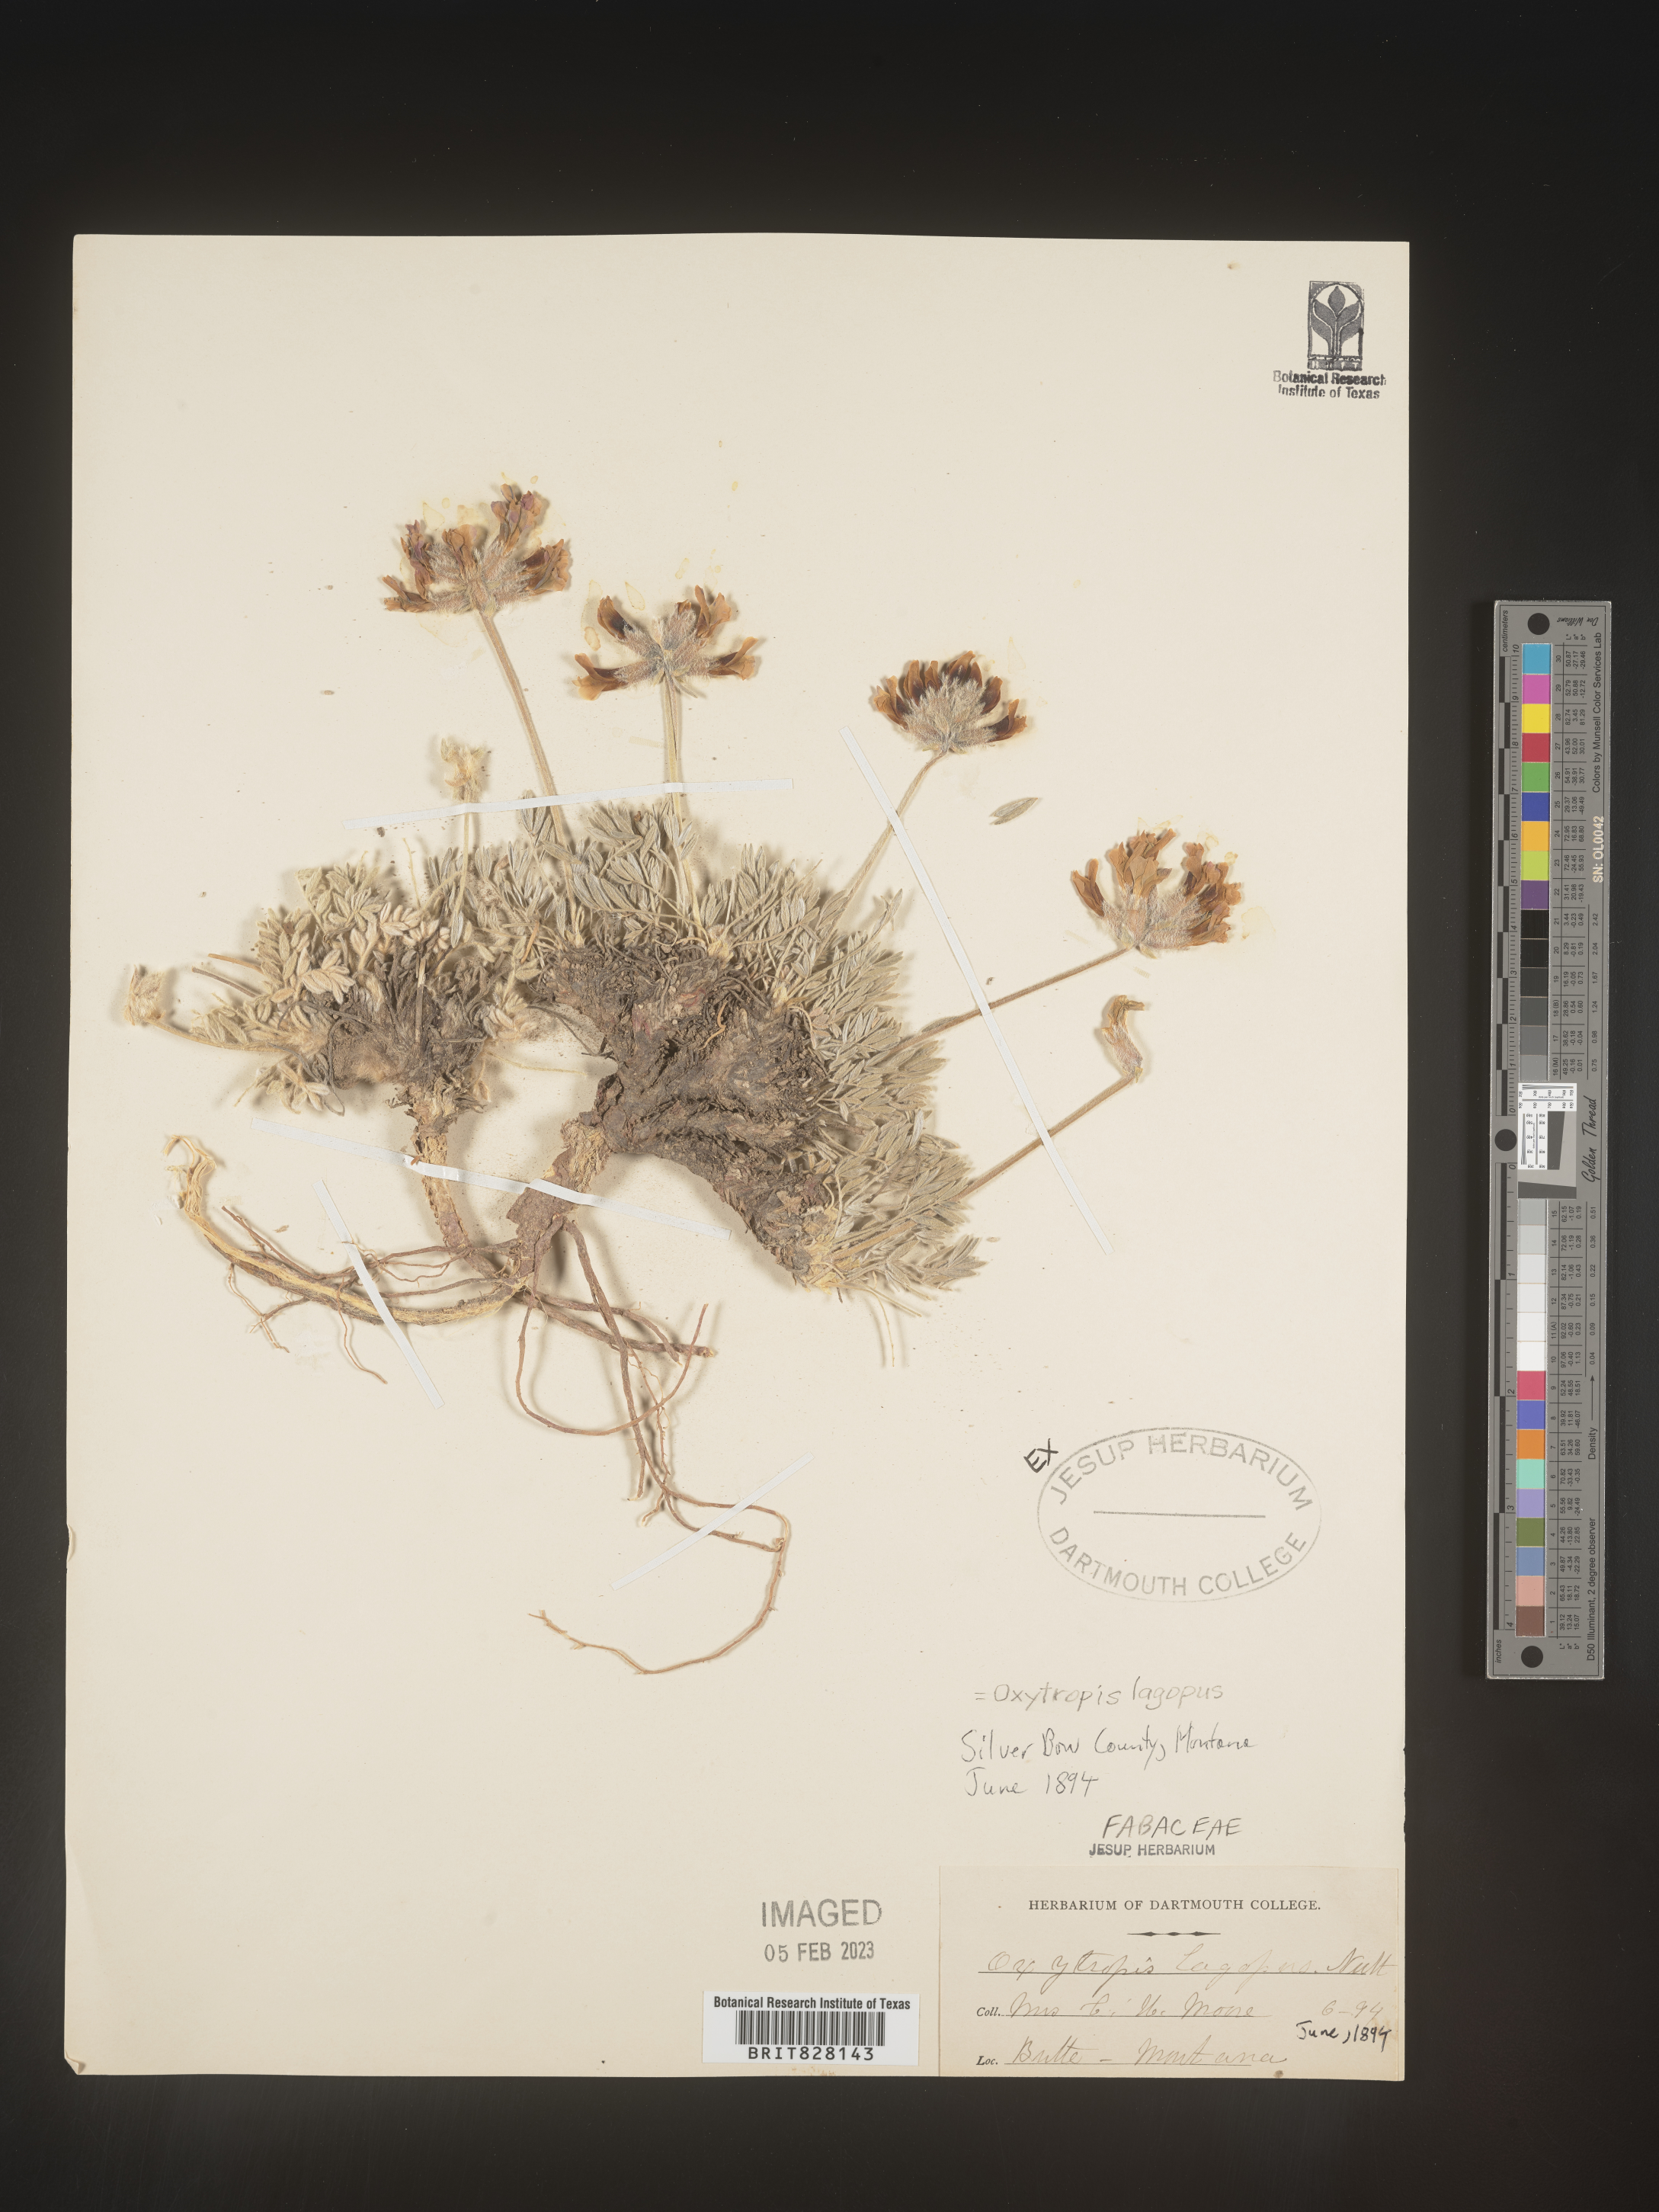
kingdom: Plantae
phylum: Tracheophyta
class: Magnoliopsida
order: Fabales
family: Fabaceae
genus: Oxytropis
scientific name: Oxytropis
